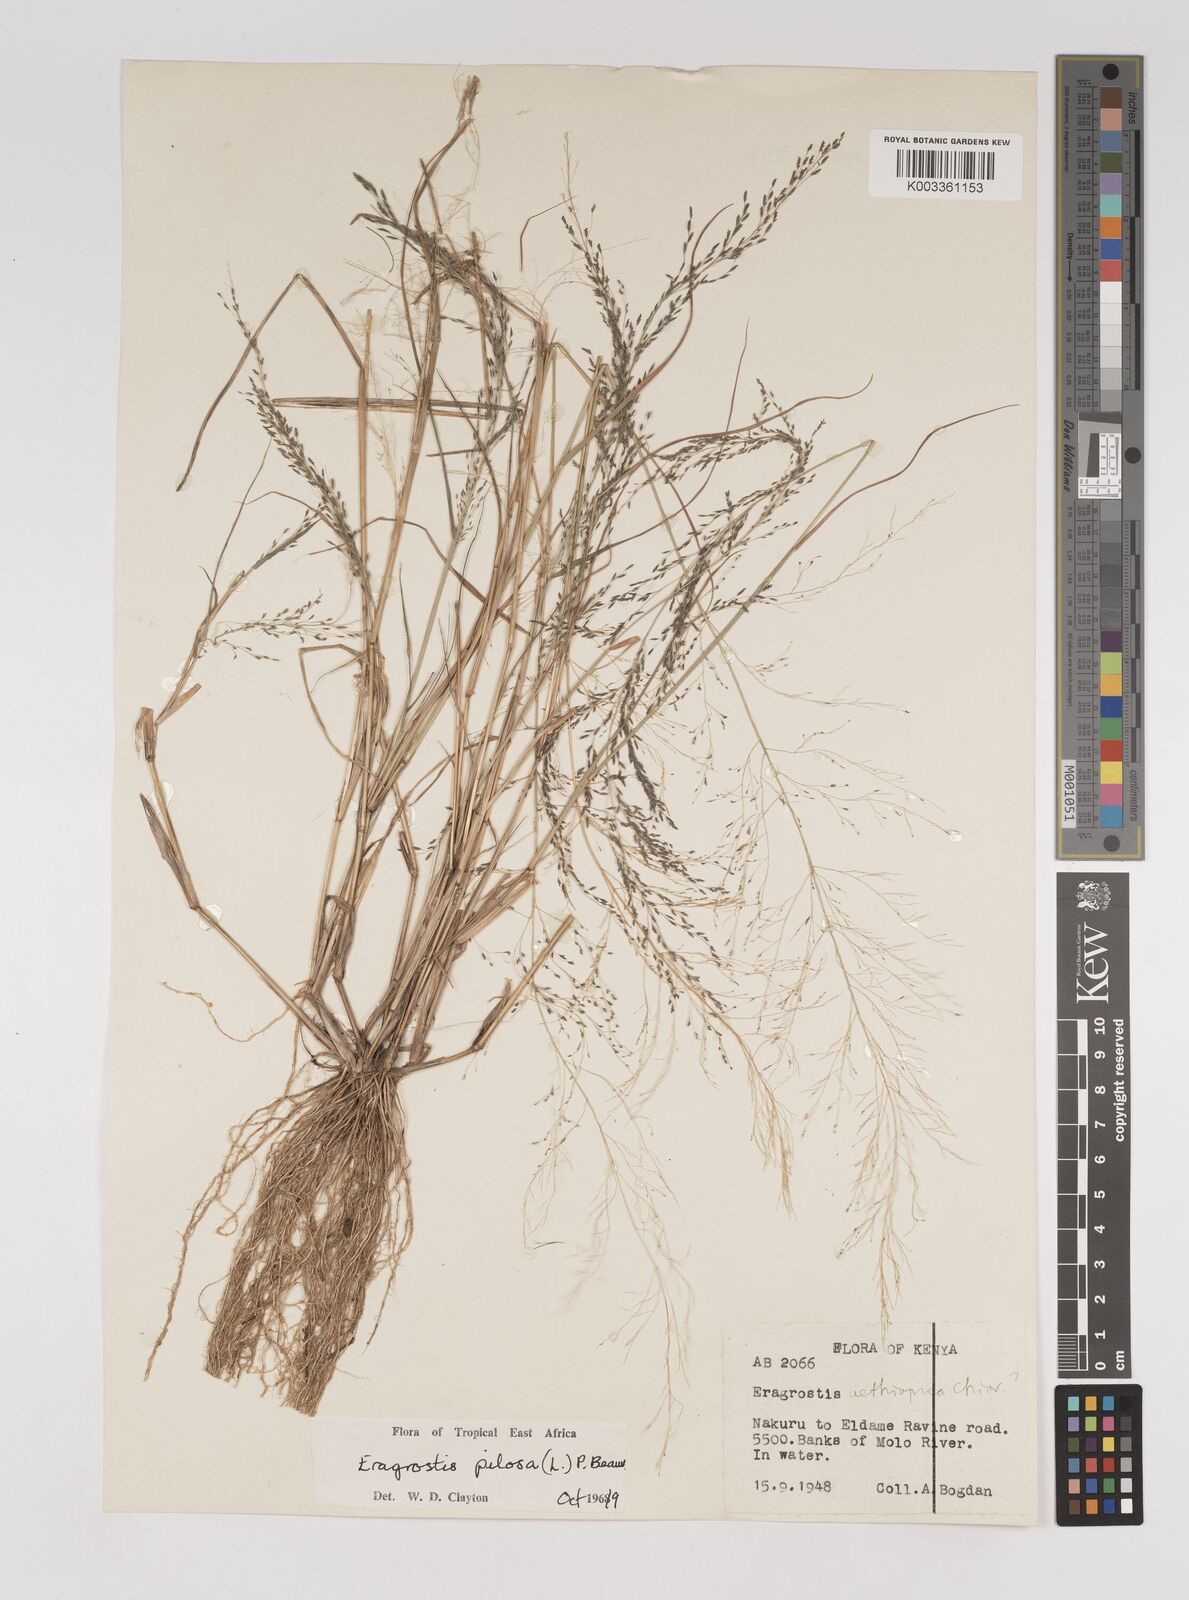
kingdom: Plantae
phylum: Tracheophyta
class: Liliopsida
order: Poales
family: Poaceae
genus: Eragrostis
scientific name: Eragrostis pilosa
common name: Indian lovegrass
